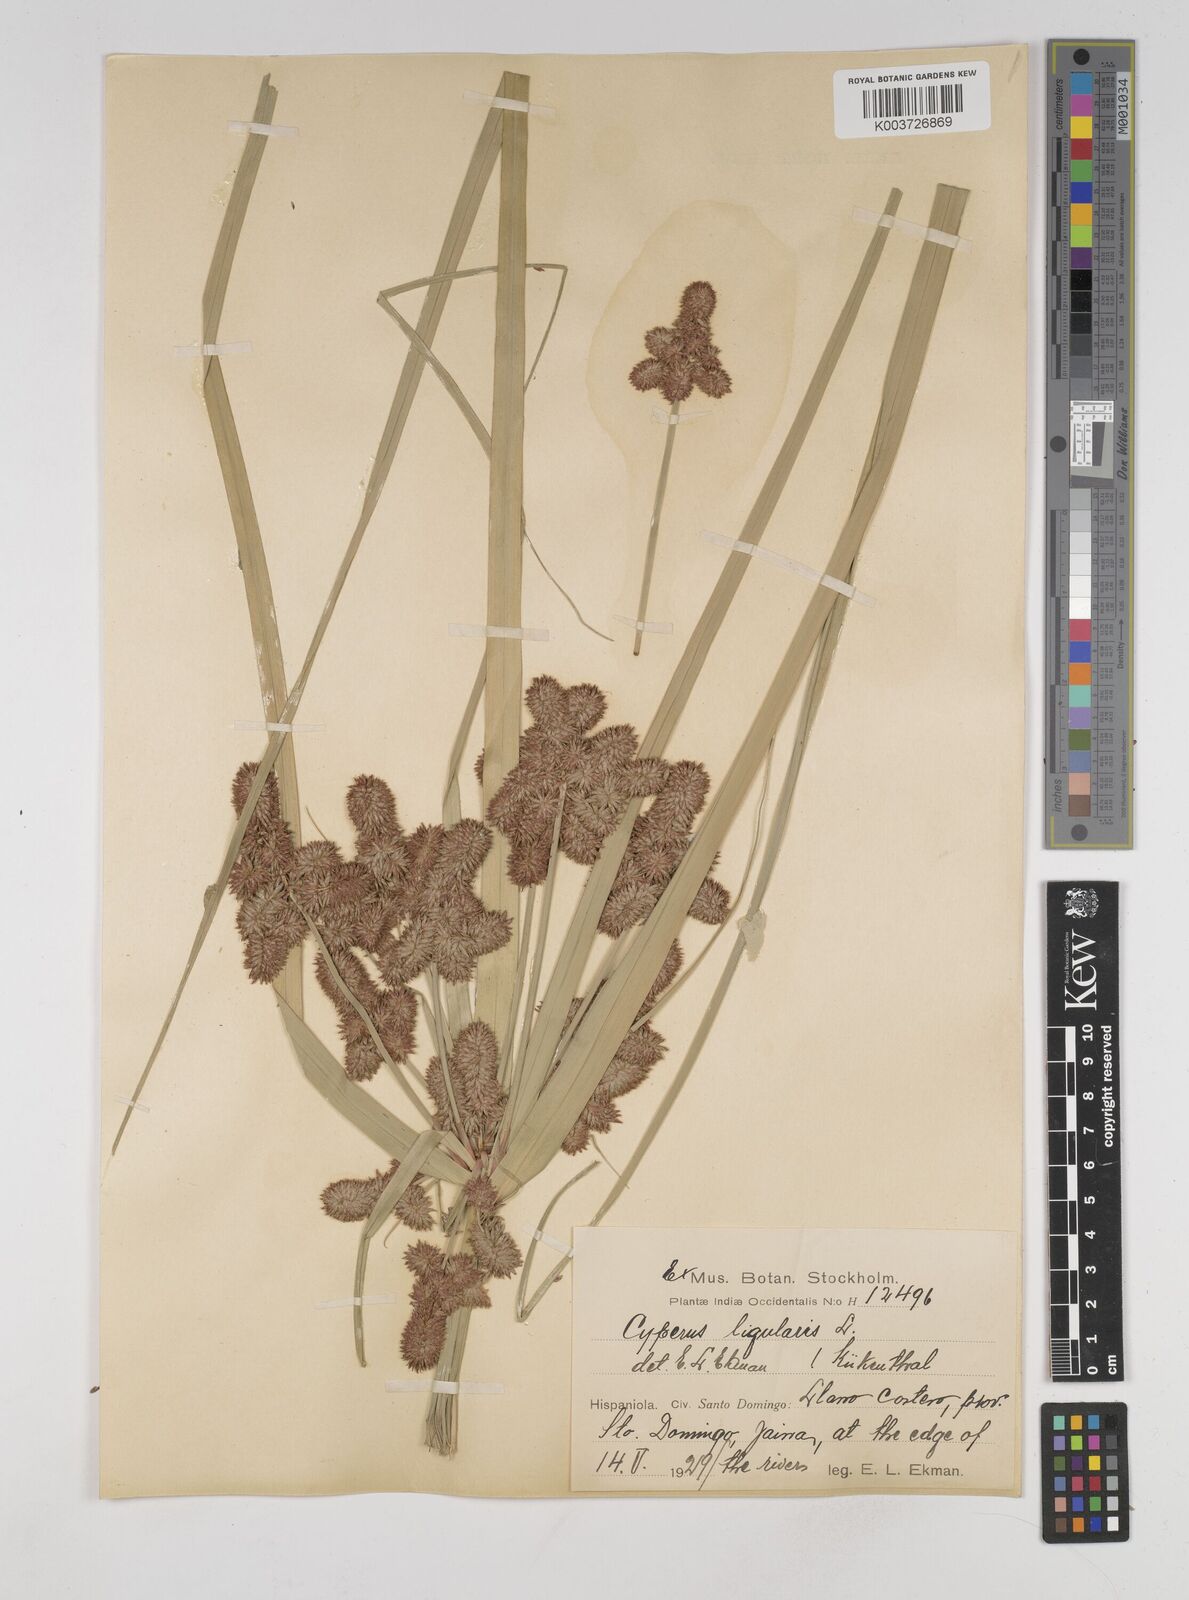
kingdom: Plantae
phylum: Tracheophyta
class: Liliopsida
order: Poales
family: Cyperaceae
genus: Cyperus
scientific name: Cyperus ligularis
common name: Swamp flat sedge
